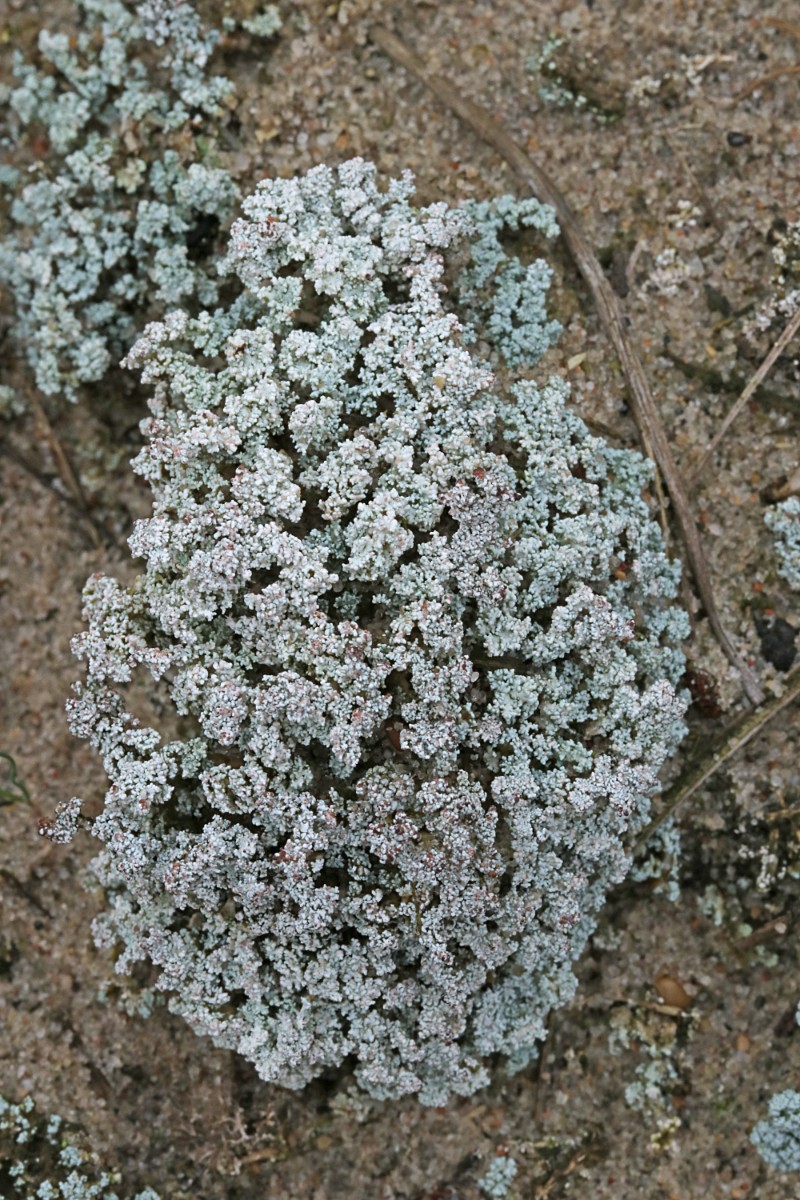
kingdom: Fungi
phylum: Ascomycota
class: Lecanoromycetes
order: Lecanorales
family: Stereocaulaceae
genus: Stereocaulon
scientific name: Stereocaulon condensatum
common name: lav korallav
